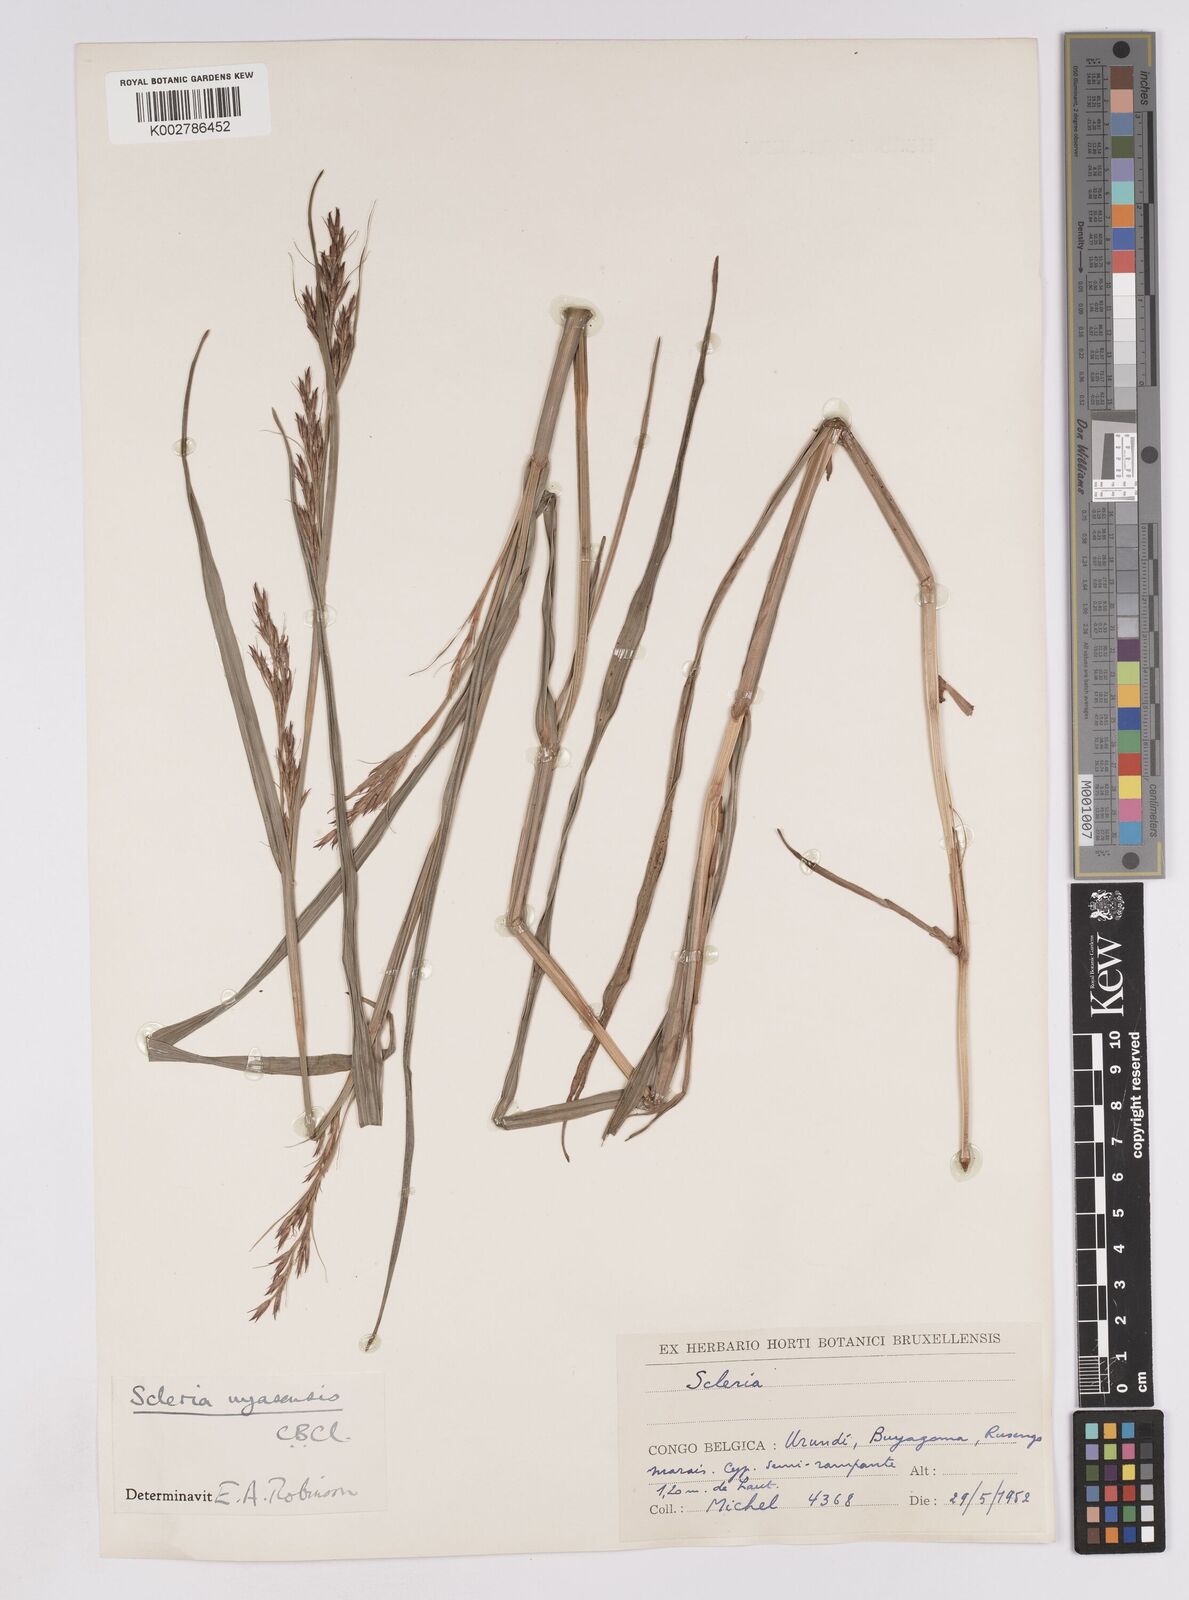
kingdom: Plantae
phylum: Tracheophyta
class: Liliopsida
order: Poales
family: Cyperaceae
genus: Scleria
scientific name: Scleria nyasensis
